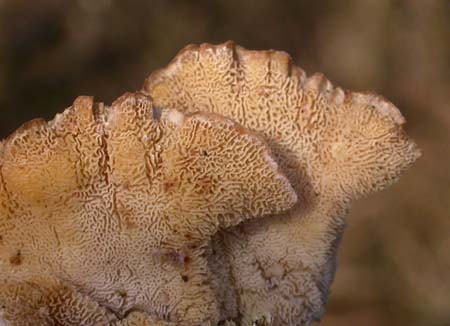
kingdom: Fungi
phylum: Basidiomycota
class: Agaricomycetes
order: Polyporales
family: Polyporaceae
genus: Trametes
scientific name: Trametes versicolor
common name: broget læderporesvamp
